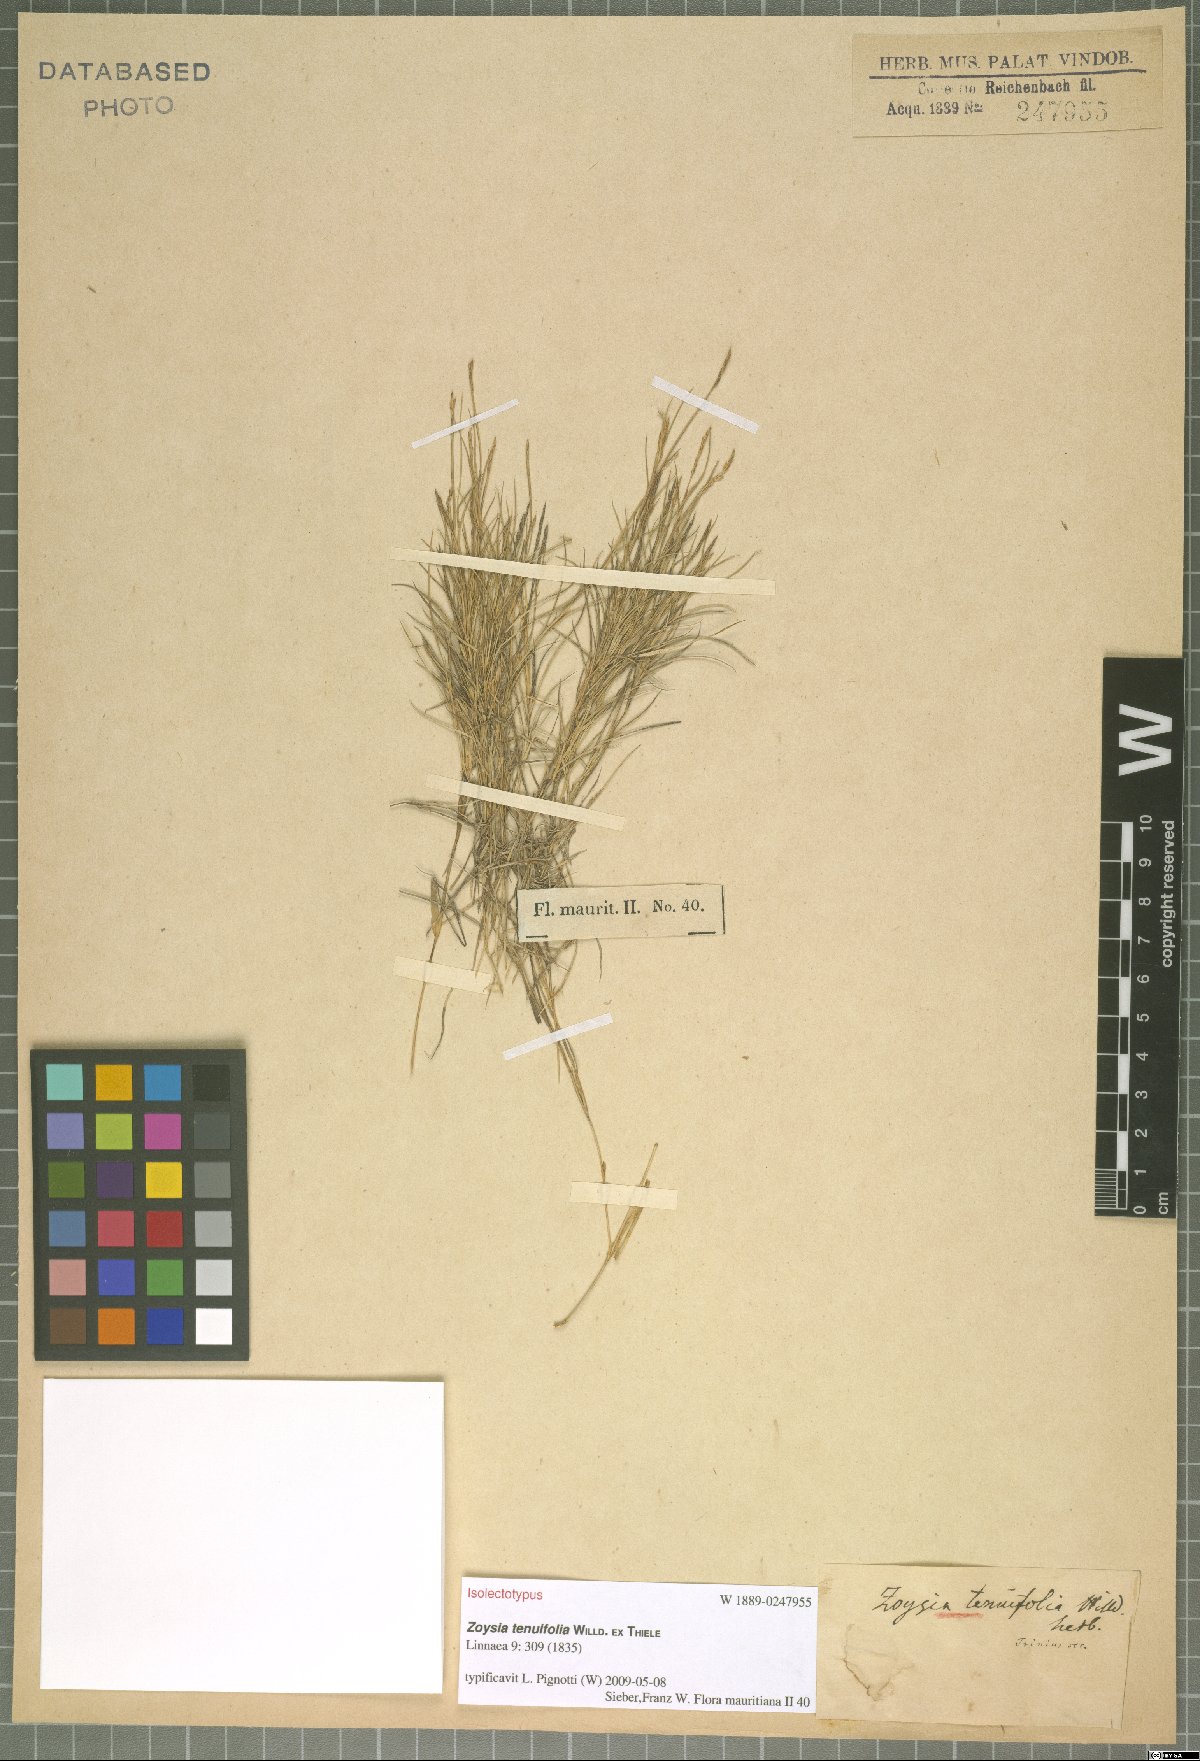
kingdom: Plantae
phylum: Tracheophyta
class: Liliopsida
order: Poales
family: Poaceae
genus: Zoysia
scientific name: Zoysia matrella
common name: Manila grass
